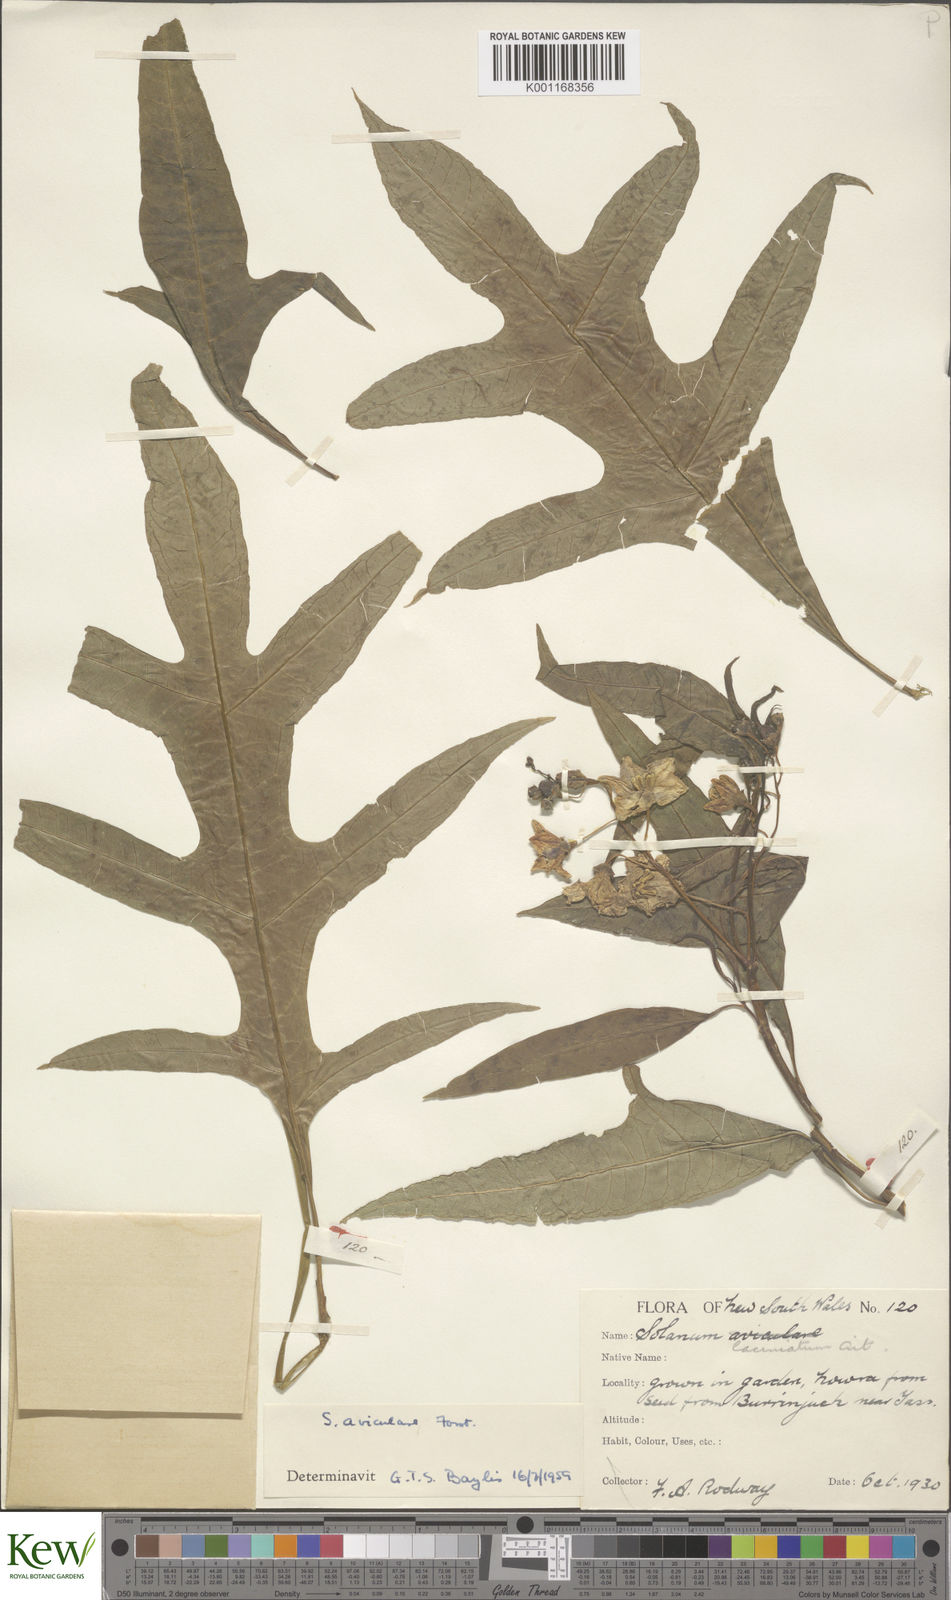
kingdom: Plantae
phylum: Tracheophyta
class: Magnoliopsida
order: Solanales
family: Solanaceae
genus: Solanum
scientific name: Solanum aviculare
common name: New zealand nightshade
